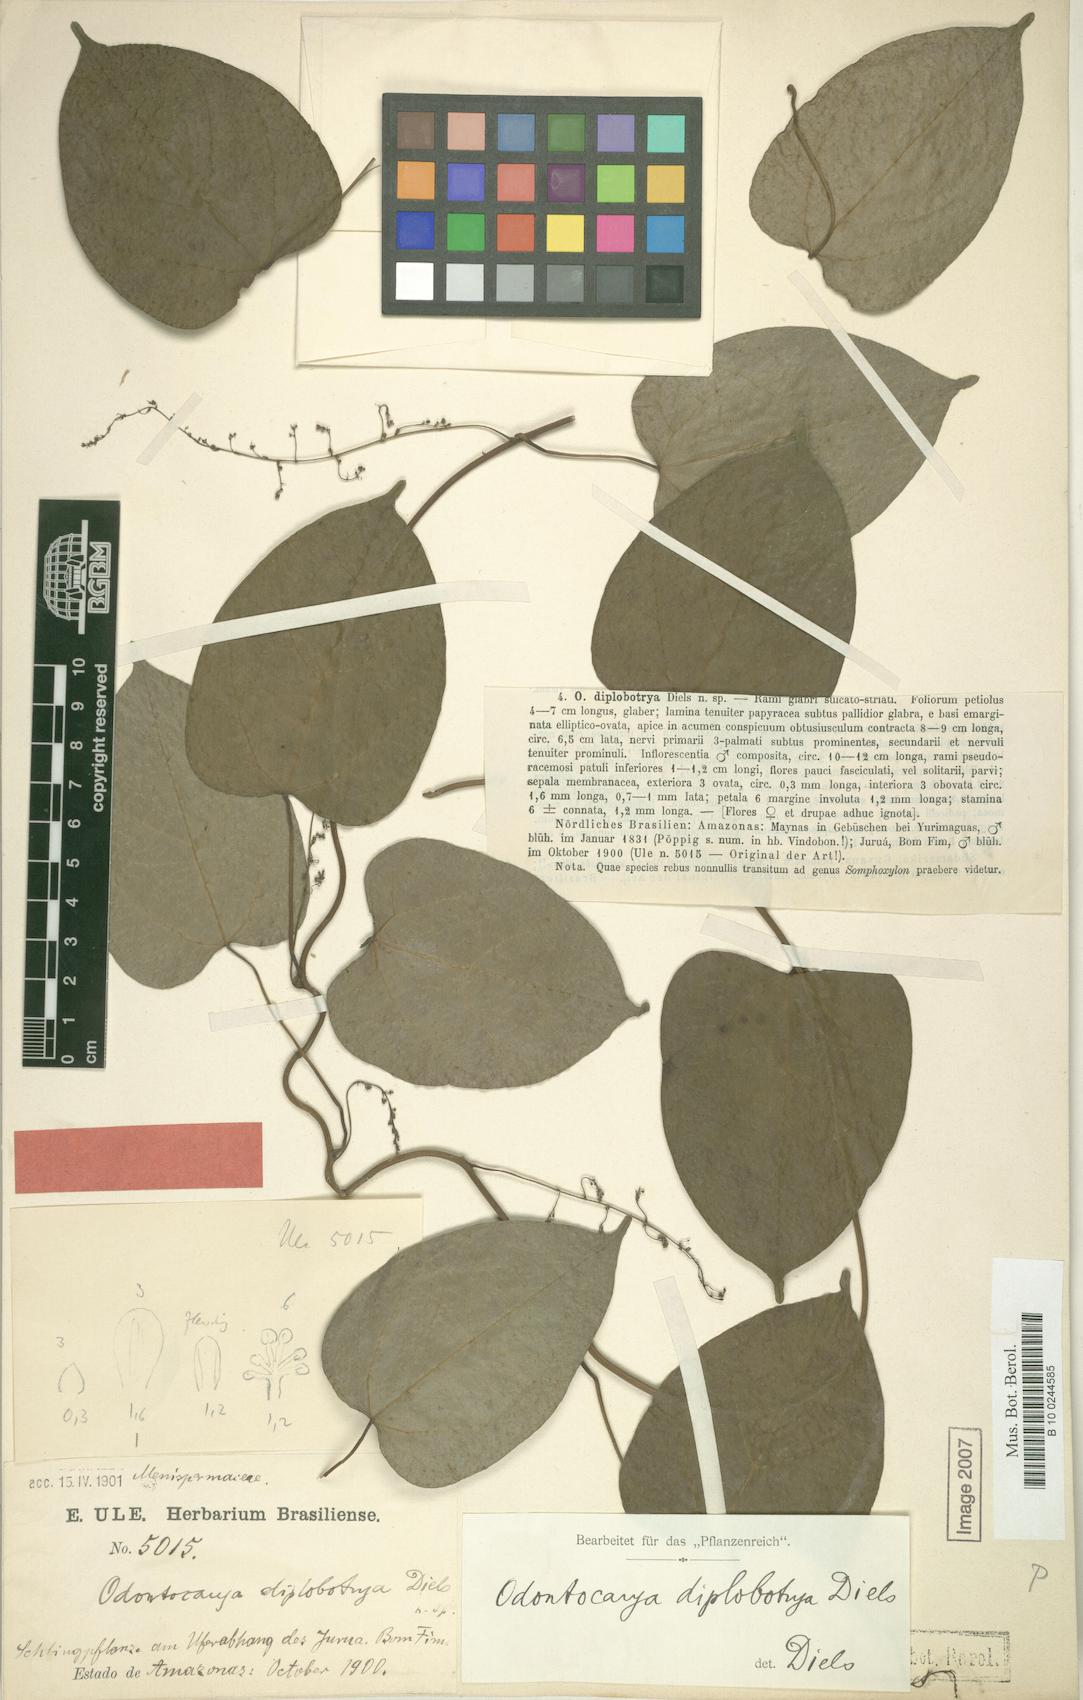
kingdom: Plantae
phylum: Tracheophyta
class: Magnoliopsida
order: Ranunculales
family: Menispermaceae
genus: Odontocarya
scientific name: Odontocarya diplobotrya
